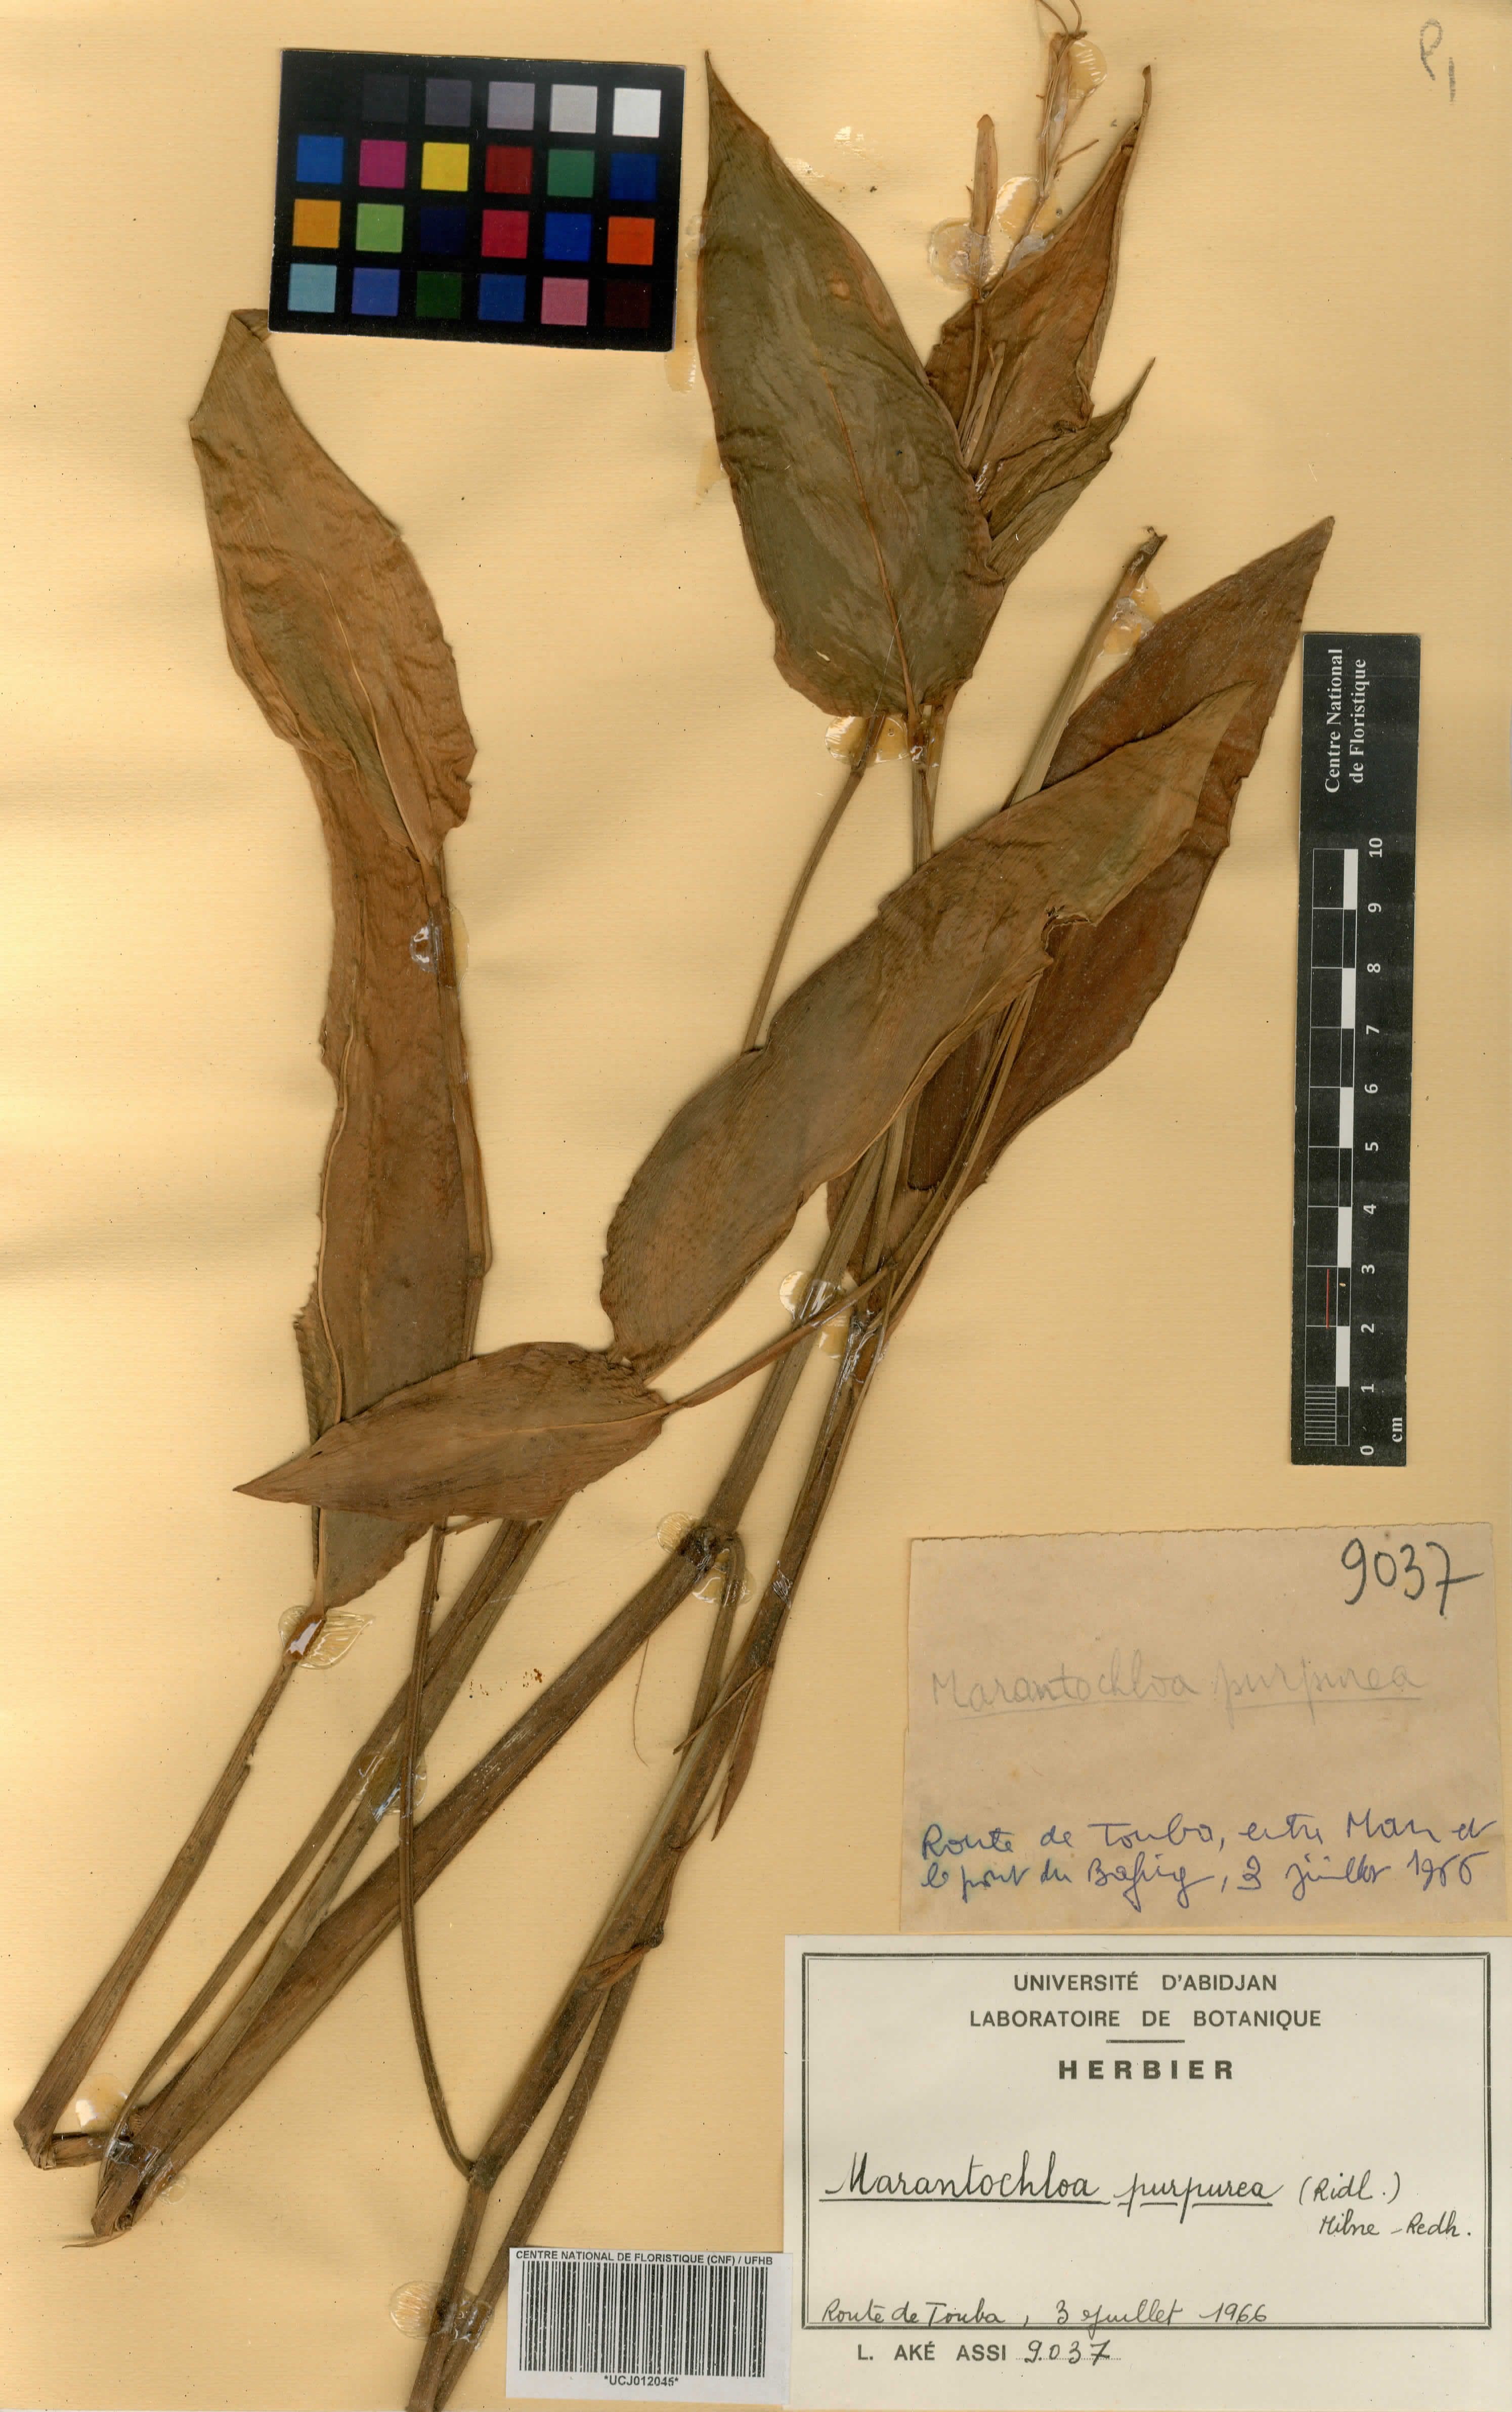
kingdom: Plantae
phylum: Tracheophyta
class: Liliopsida
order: Zingiberales
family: Marantaceae
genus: Marantochloa
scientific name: Marantochloa purpurea
